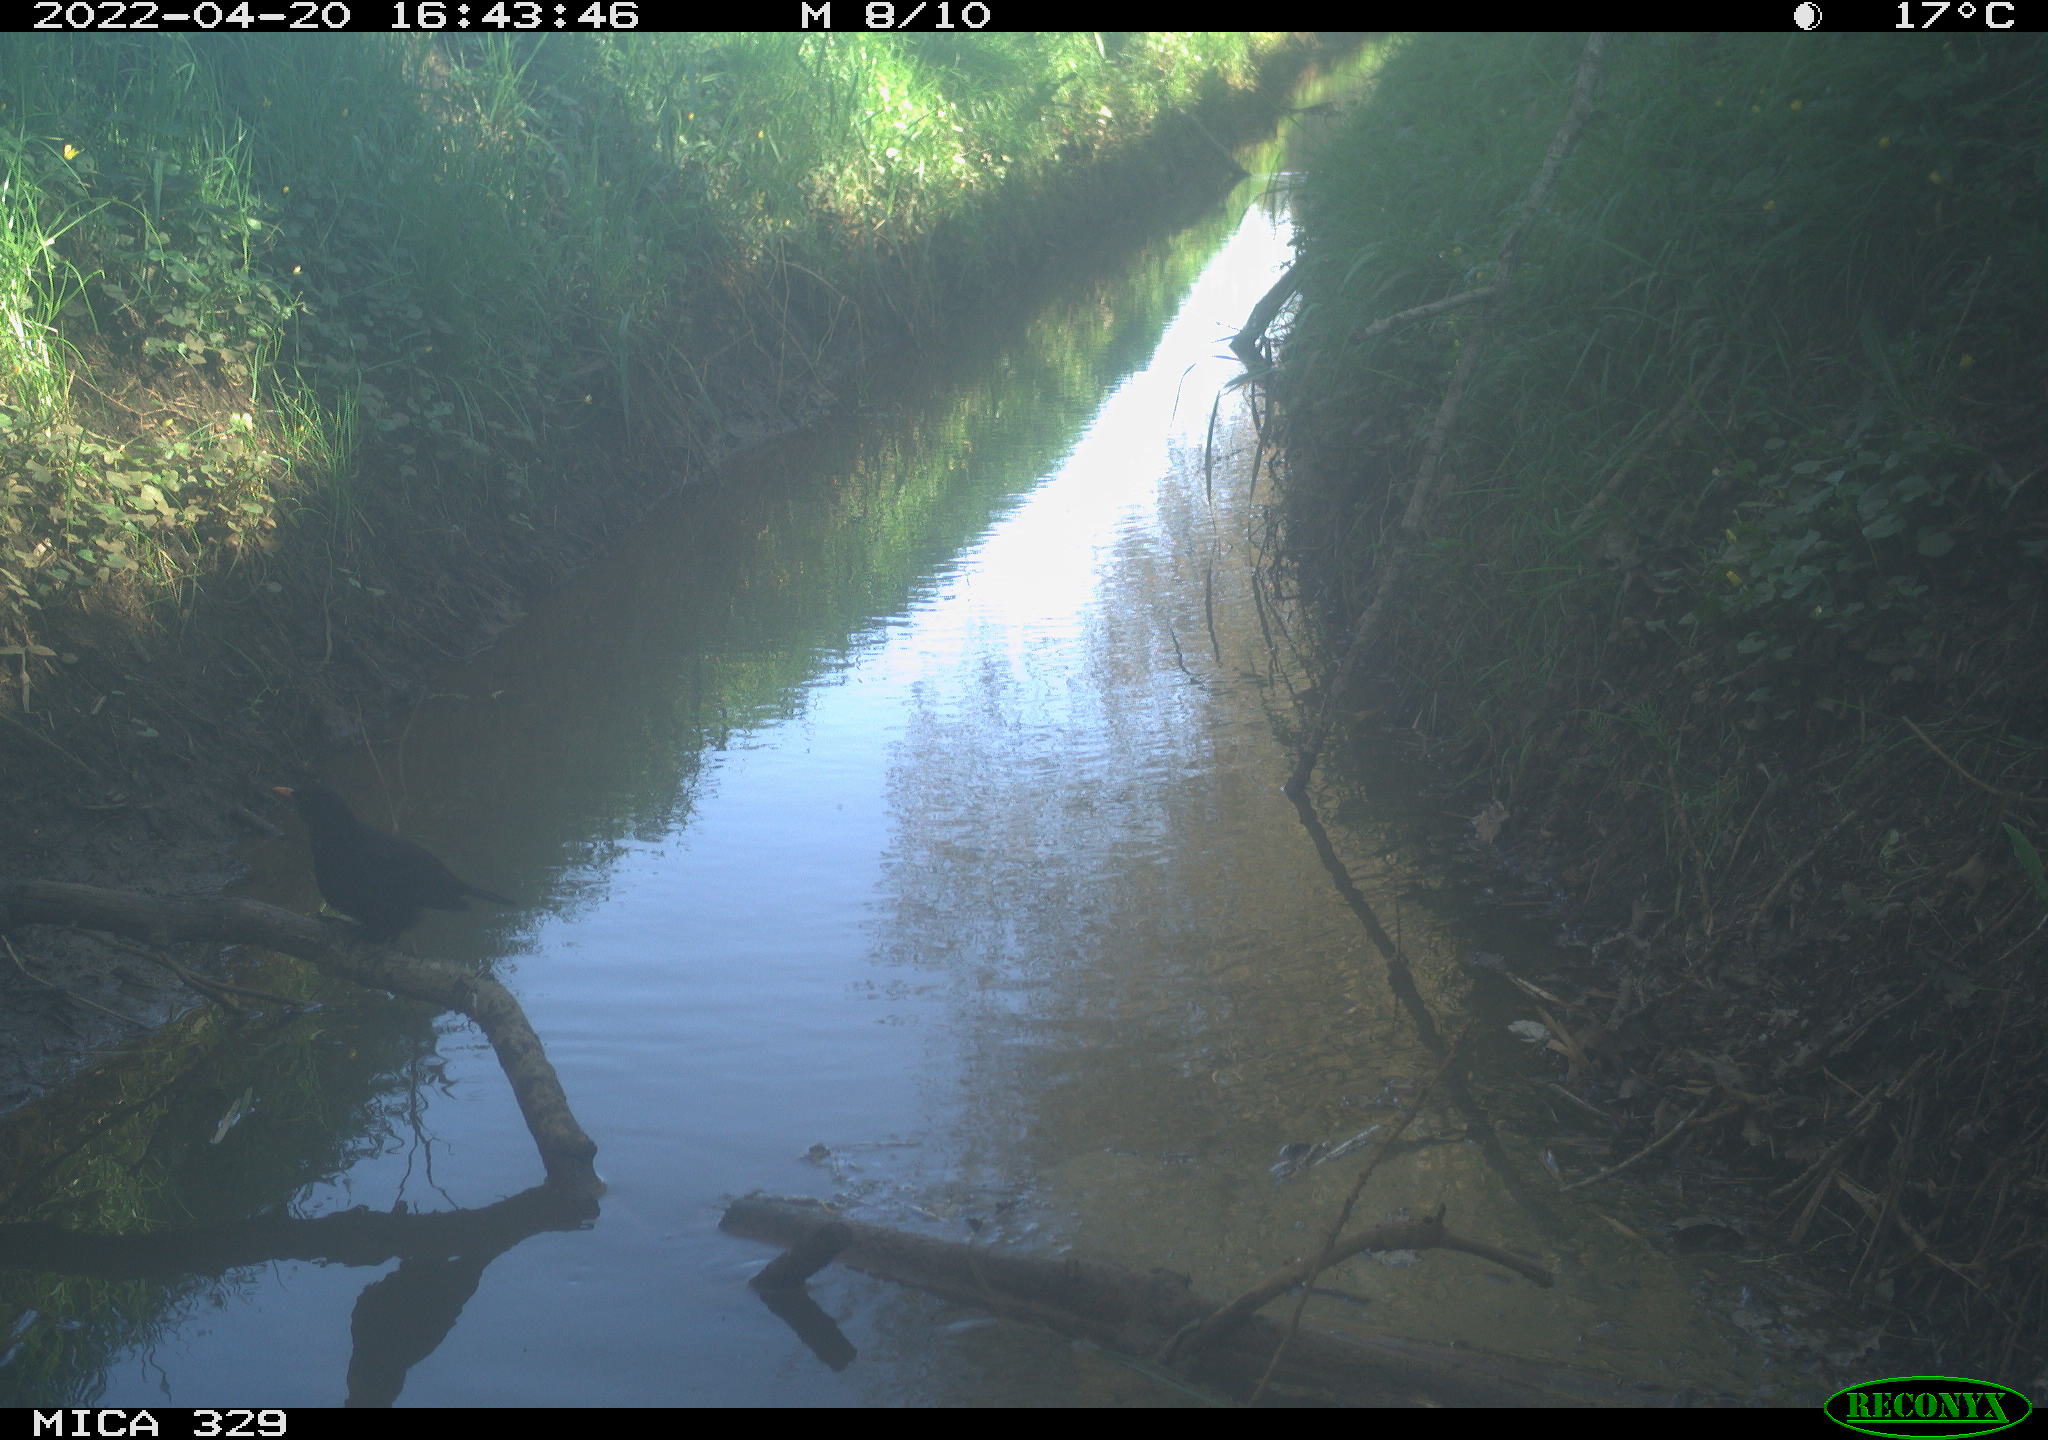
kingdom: Animalia
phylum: Chordata
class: Aves
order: Passeriformes
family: Turdidae
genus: Turdus
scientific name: Turdus merula
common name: Common blackbird
